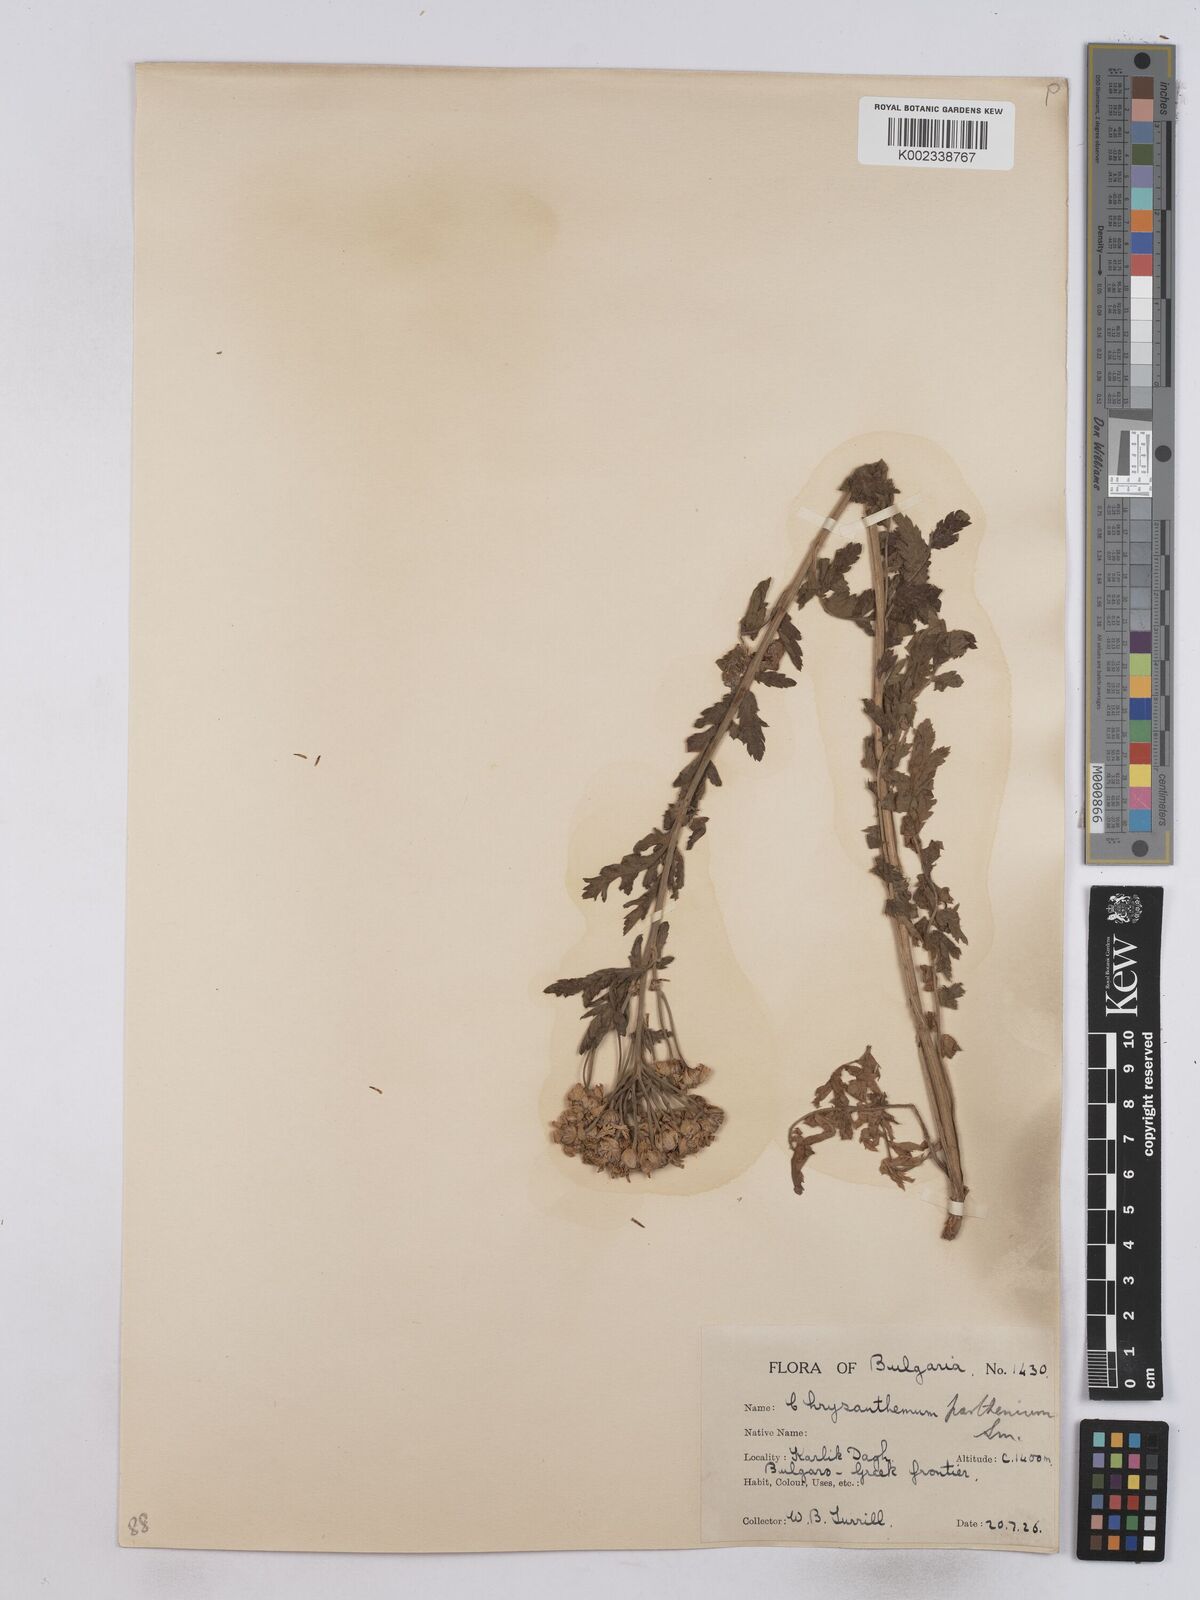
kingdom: Plantae
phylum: Tracheophyta
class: Magnoliopsida
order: Asterales
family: Asteraceae
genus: Tanacetum
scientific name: Tanacetum parthenium
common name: Feverfew
